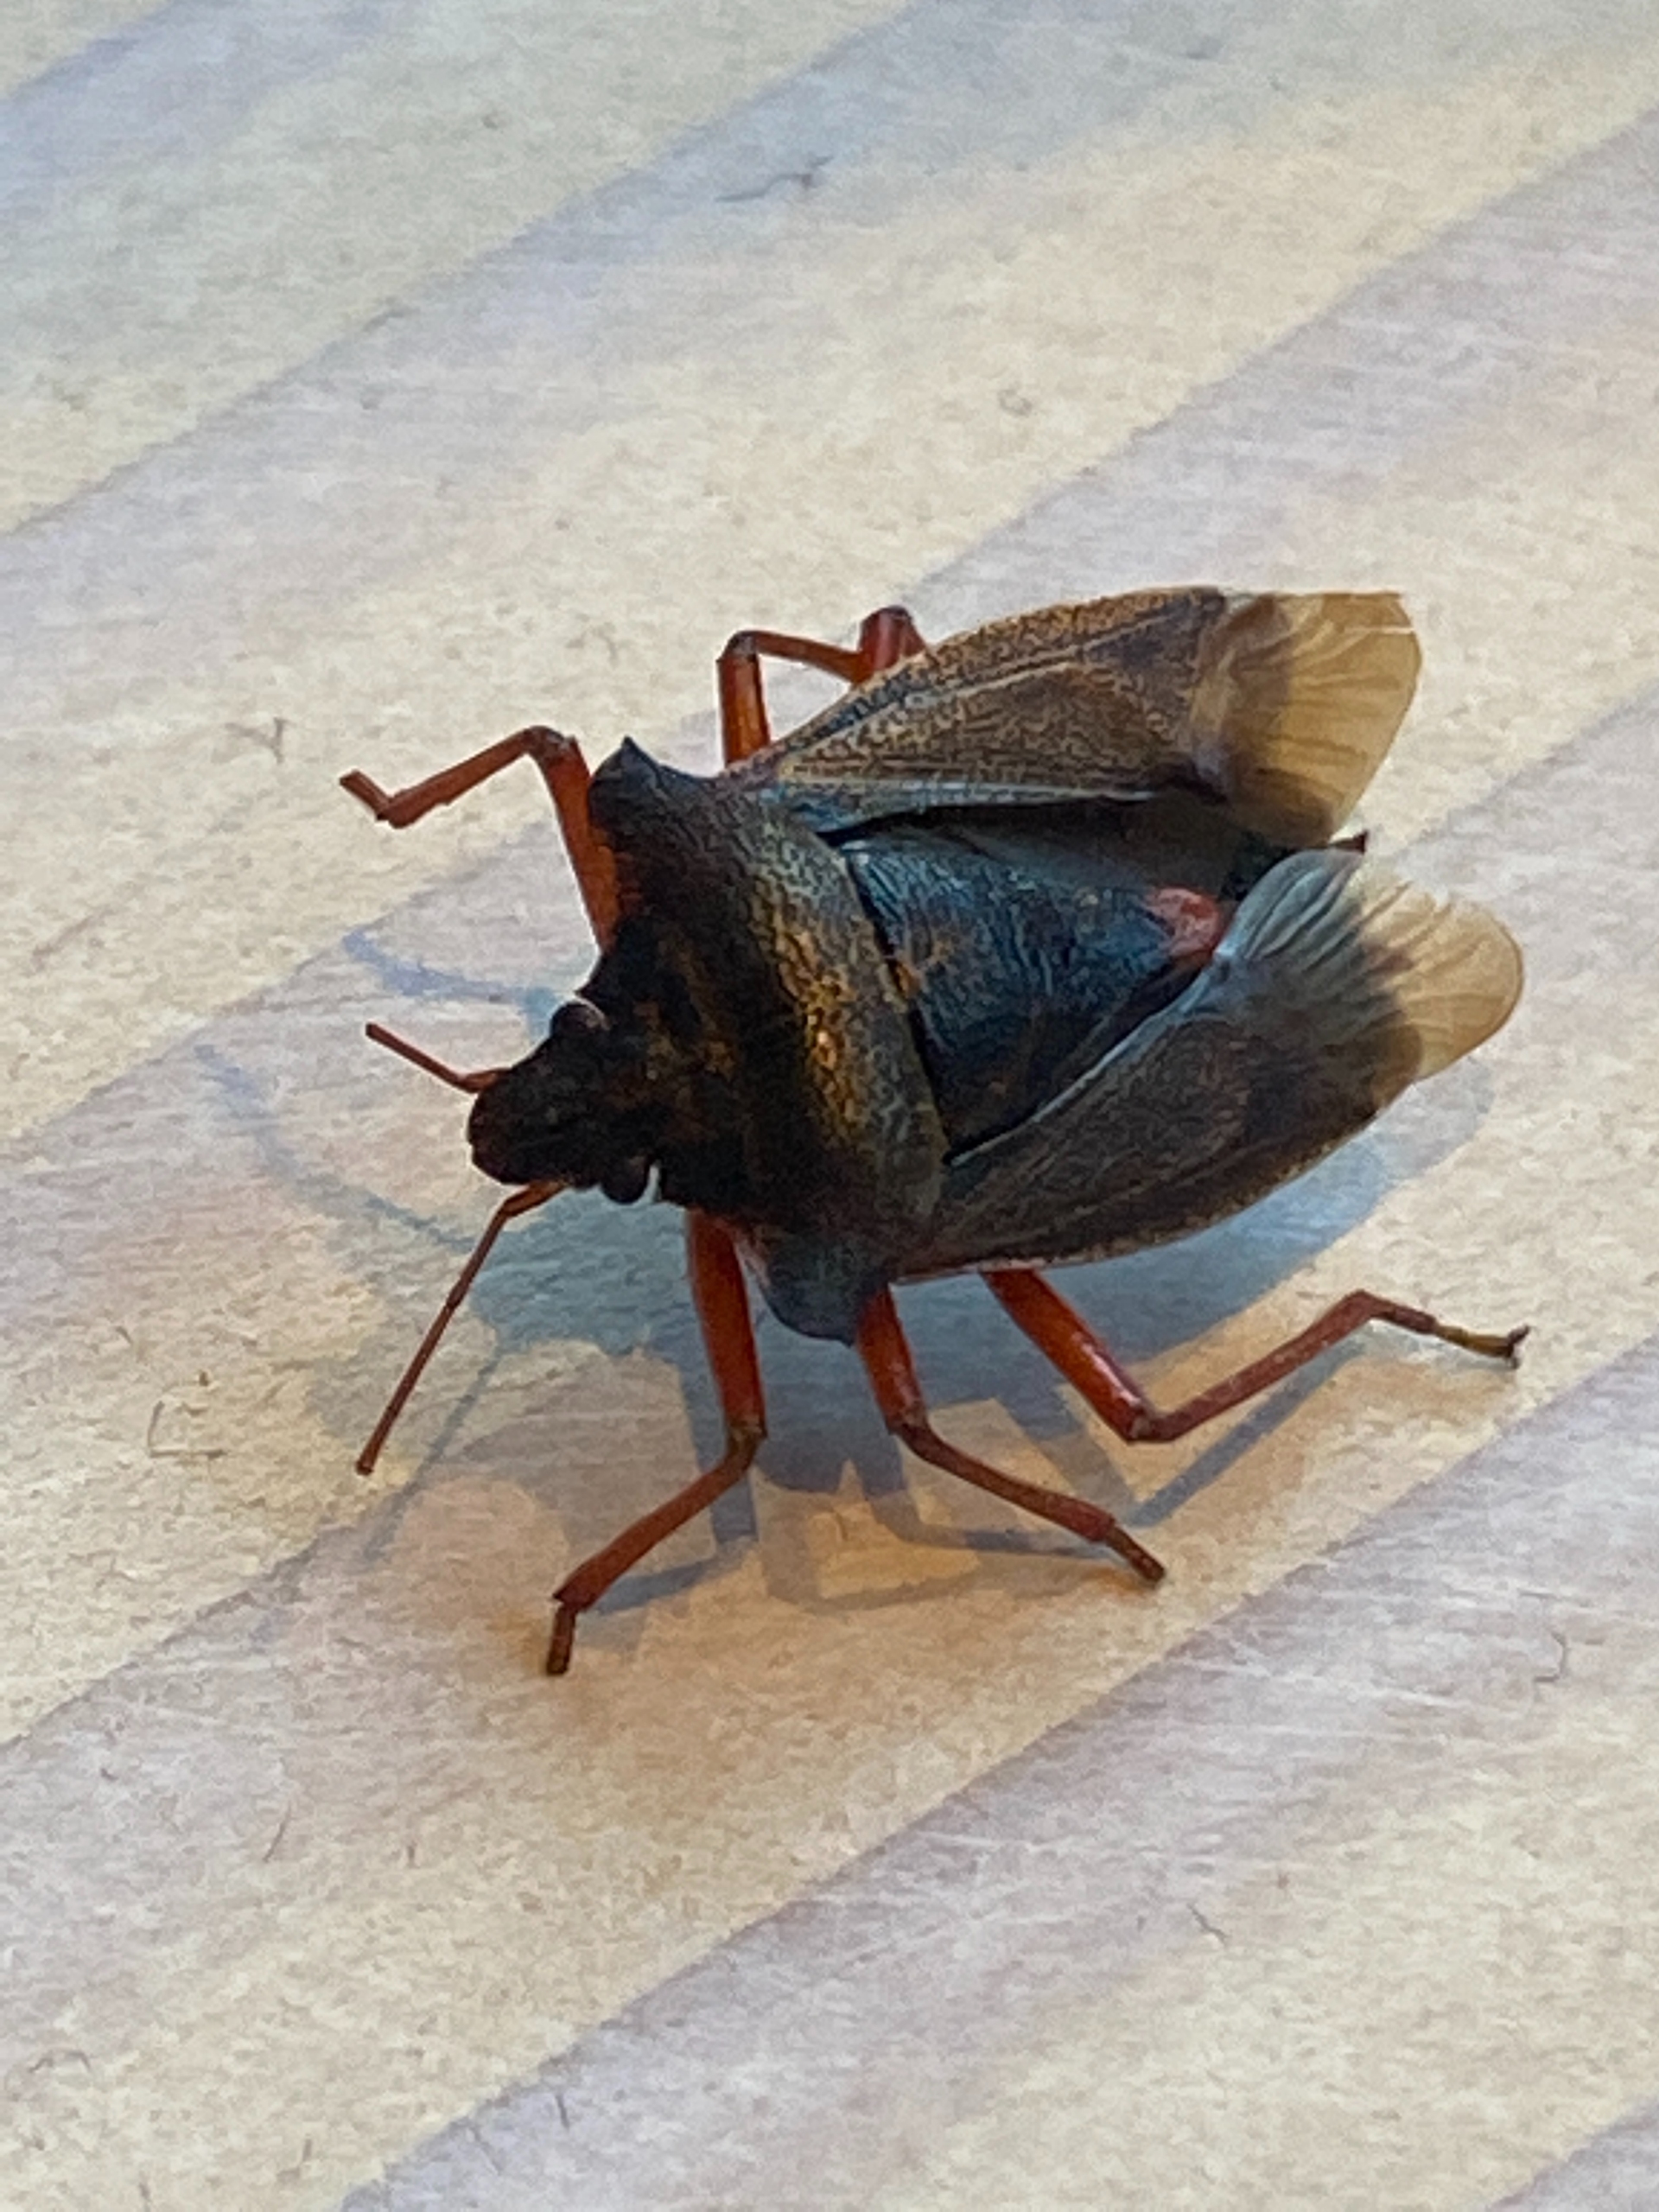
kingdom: Animalia
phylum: Arthropoda
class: Insecta
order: Hemiptera
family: Pentatomidae
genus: Pentatoma
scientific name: Pentatoma rufipes
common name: Rødbenet bredtæge
